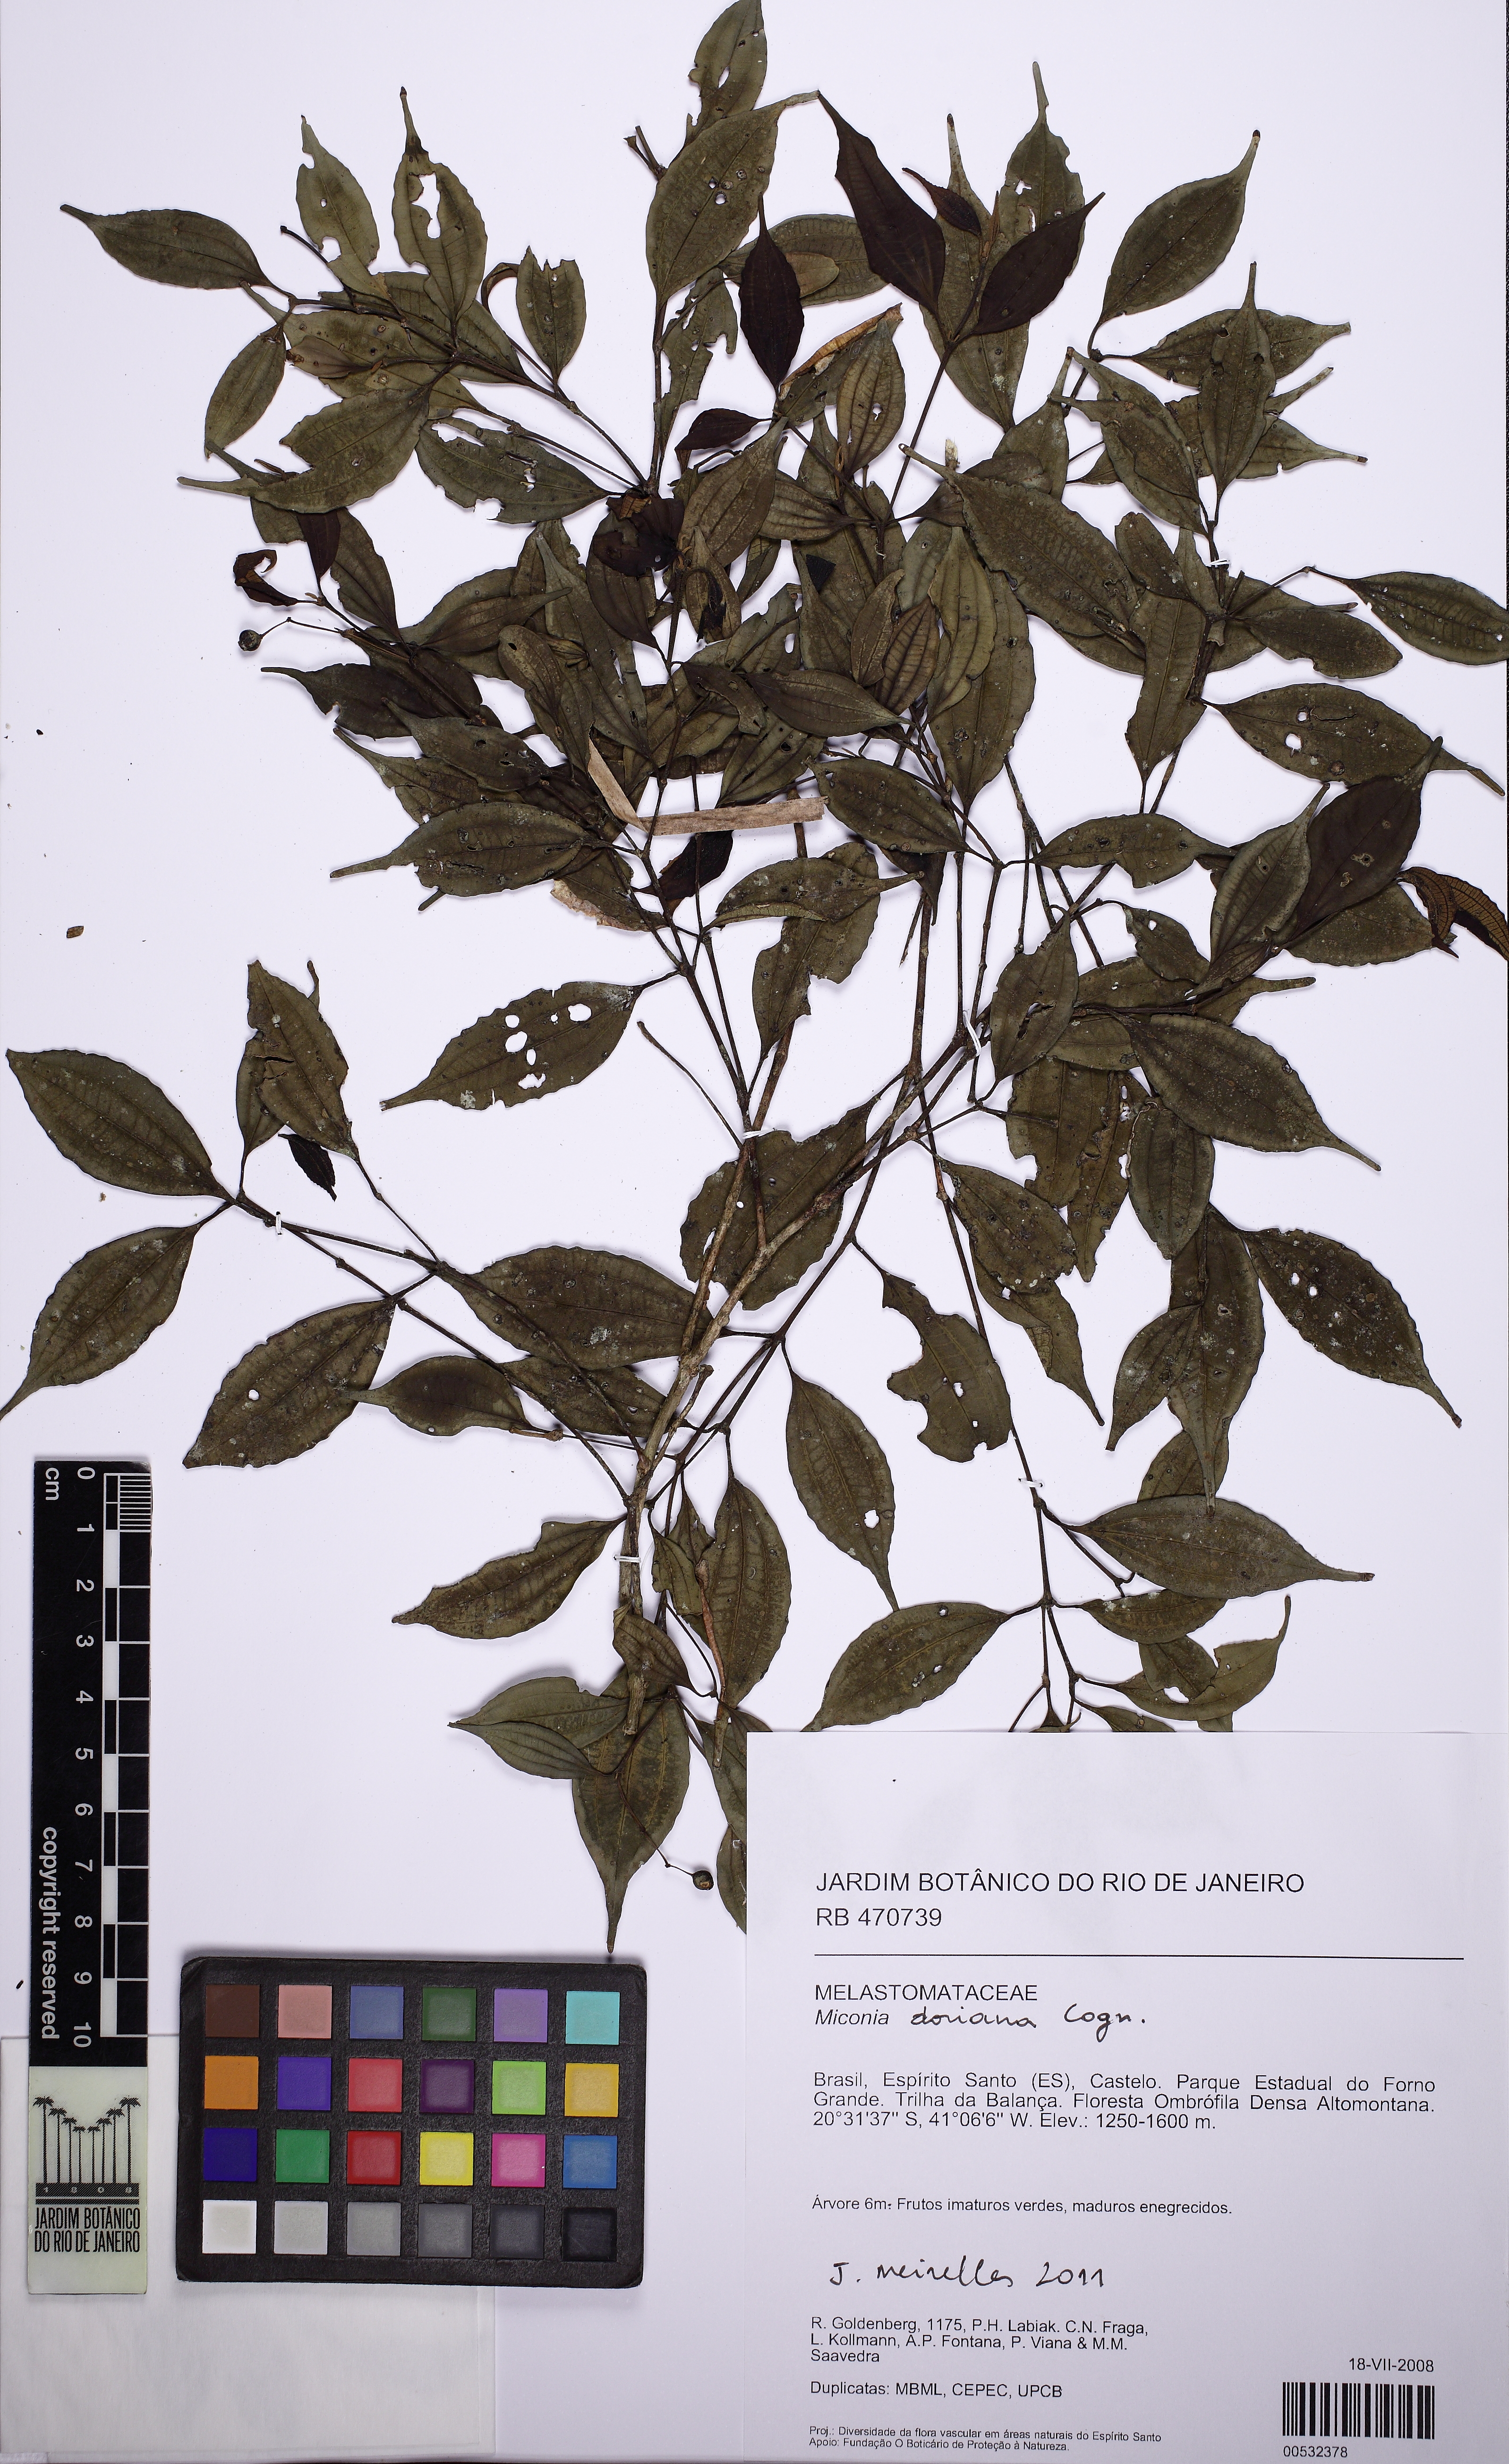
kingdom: Plantae
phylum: Tracheophyta
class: Magnoliopsida
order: Myrtales
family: Melastomataceae
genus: Miconia
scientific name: Miconia doriana
